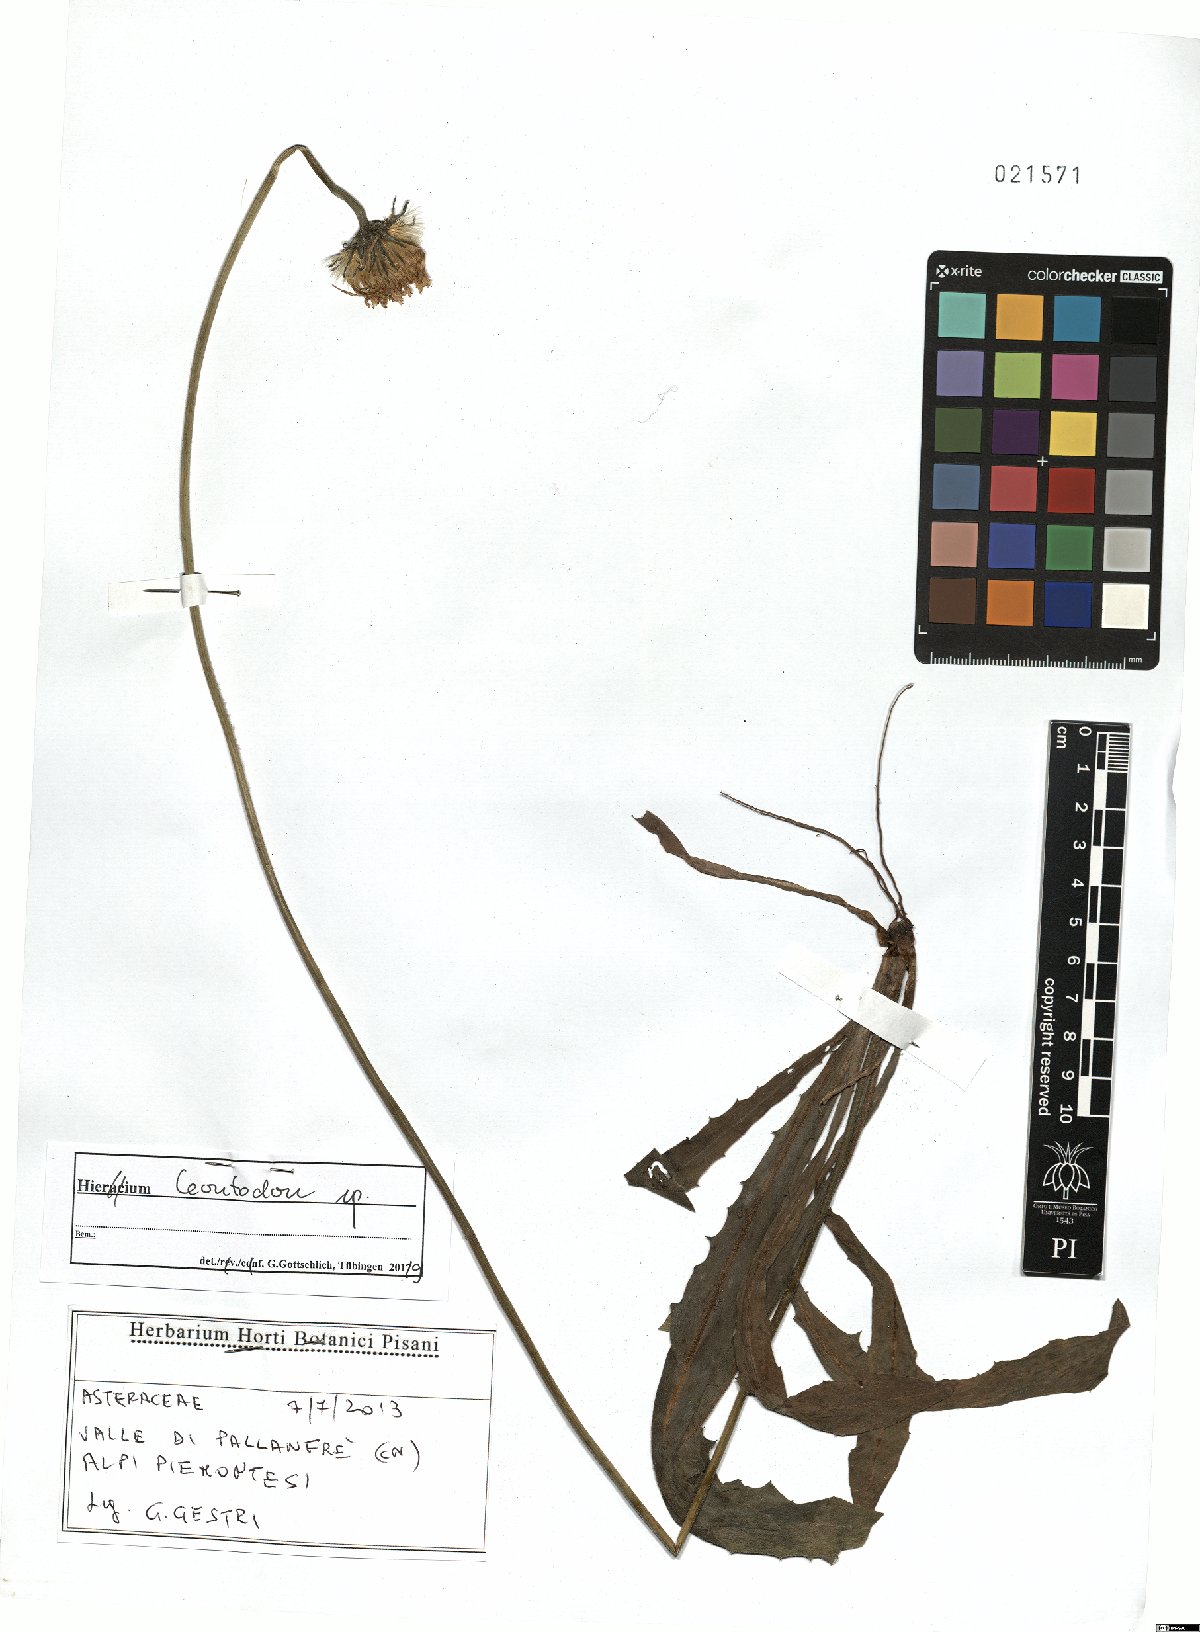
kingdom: Plantae
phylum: Tracheophyta
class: Magnoliopsida
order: Asterales
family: Asteraceae
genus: Leontodon
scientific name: Leontodon
